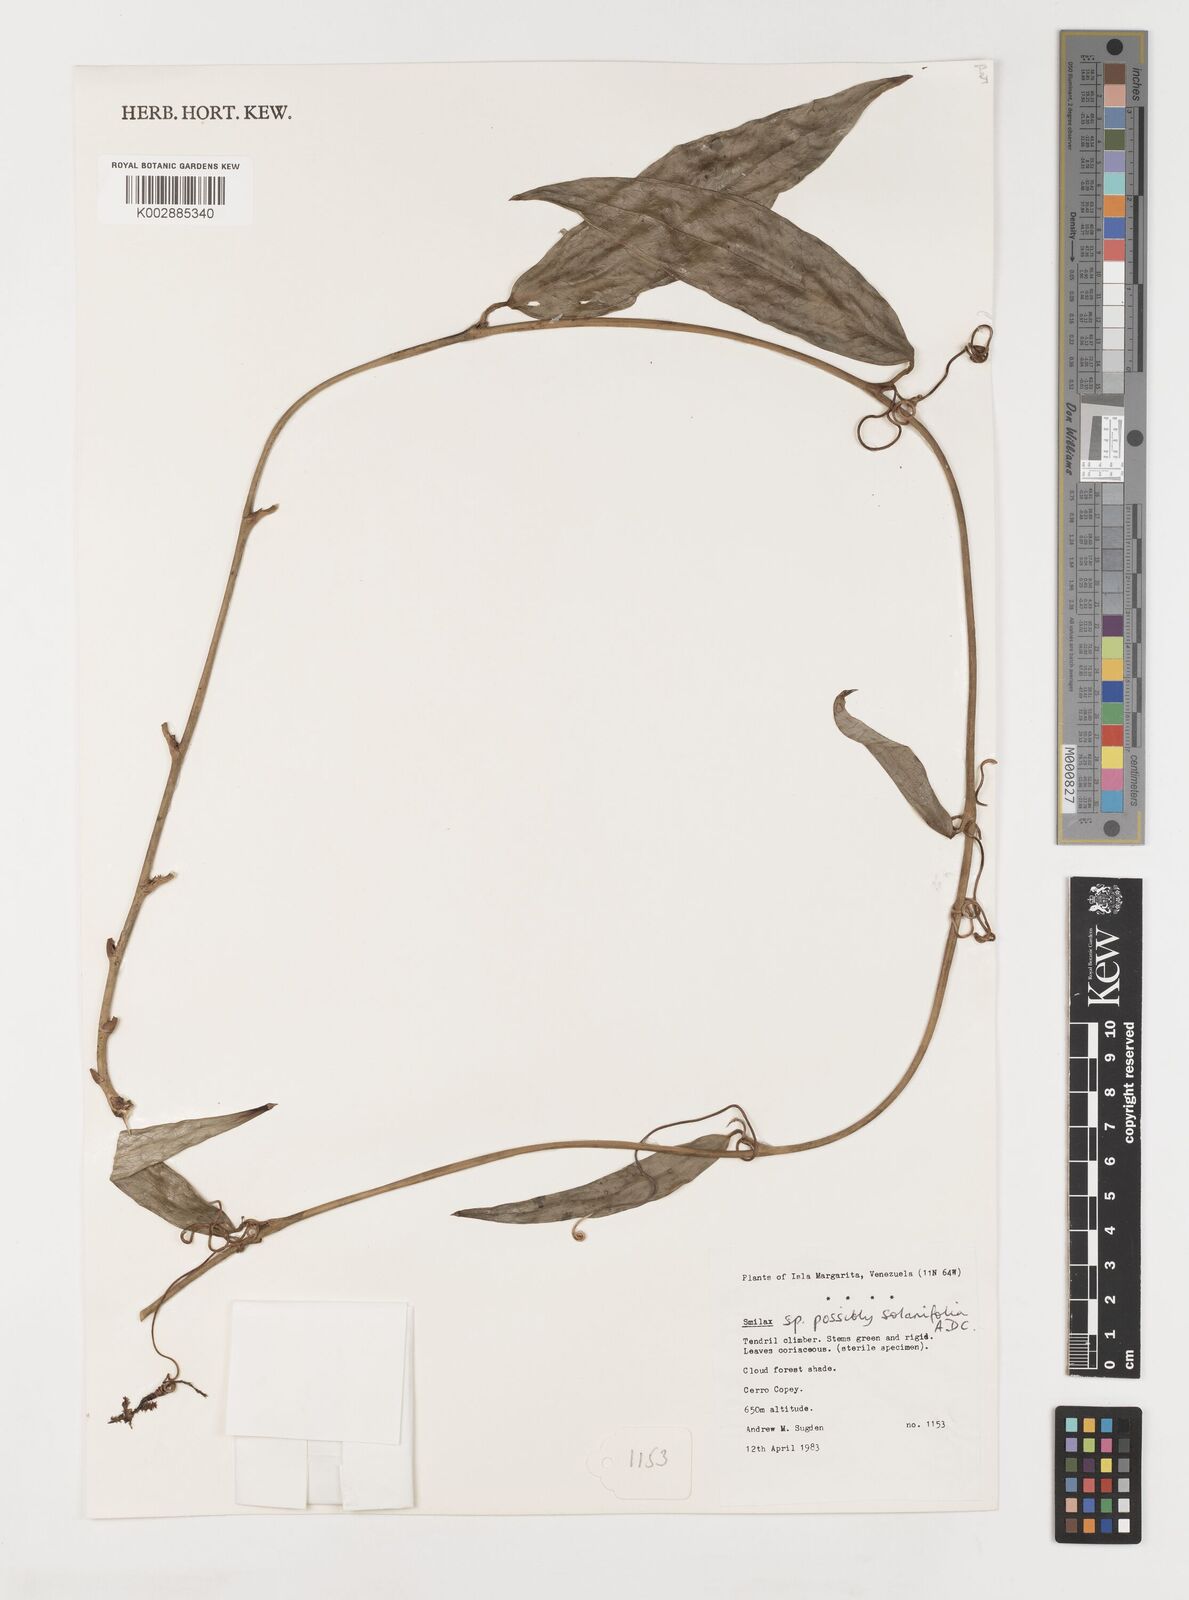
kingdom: Plantae
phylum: Tracheophyta
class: Liliopsida
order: Liliales
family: Smilacaceae
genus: Smilax
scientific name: Smilax solanifolia
